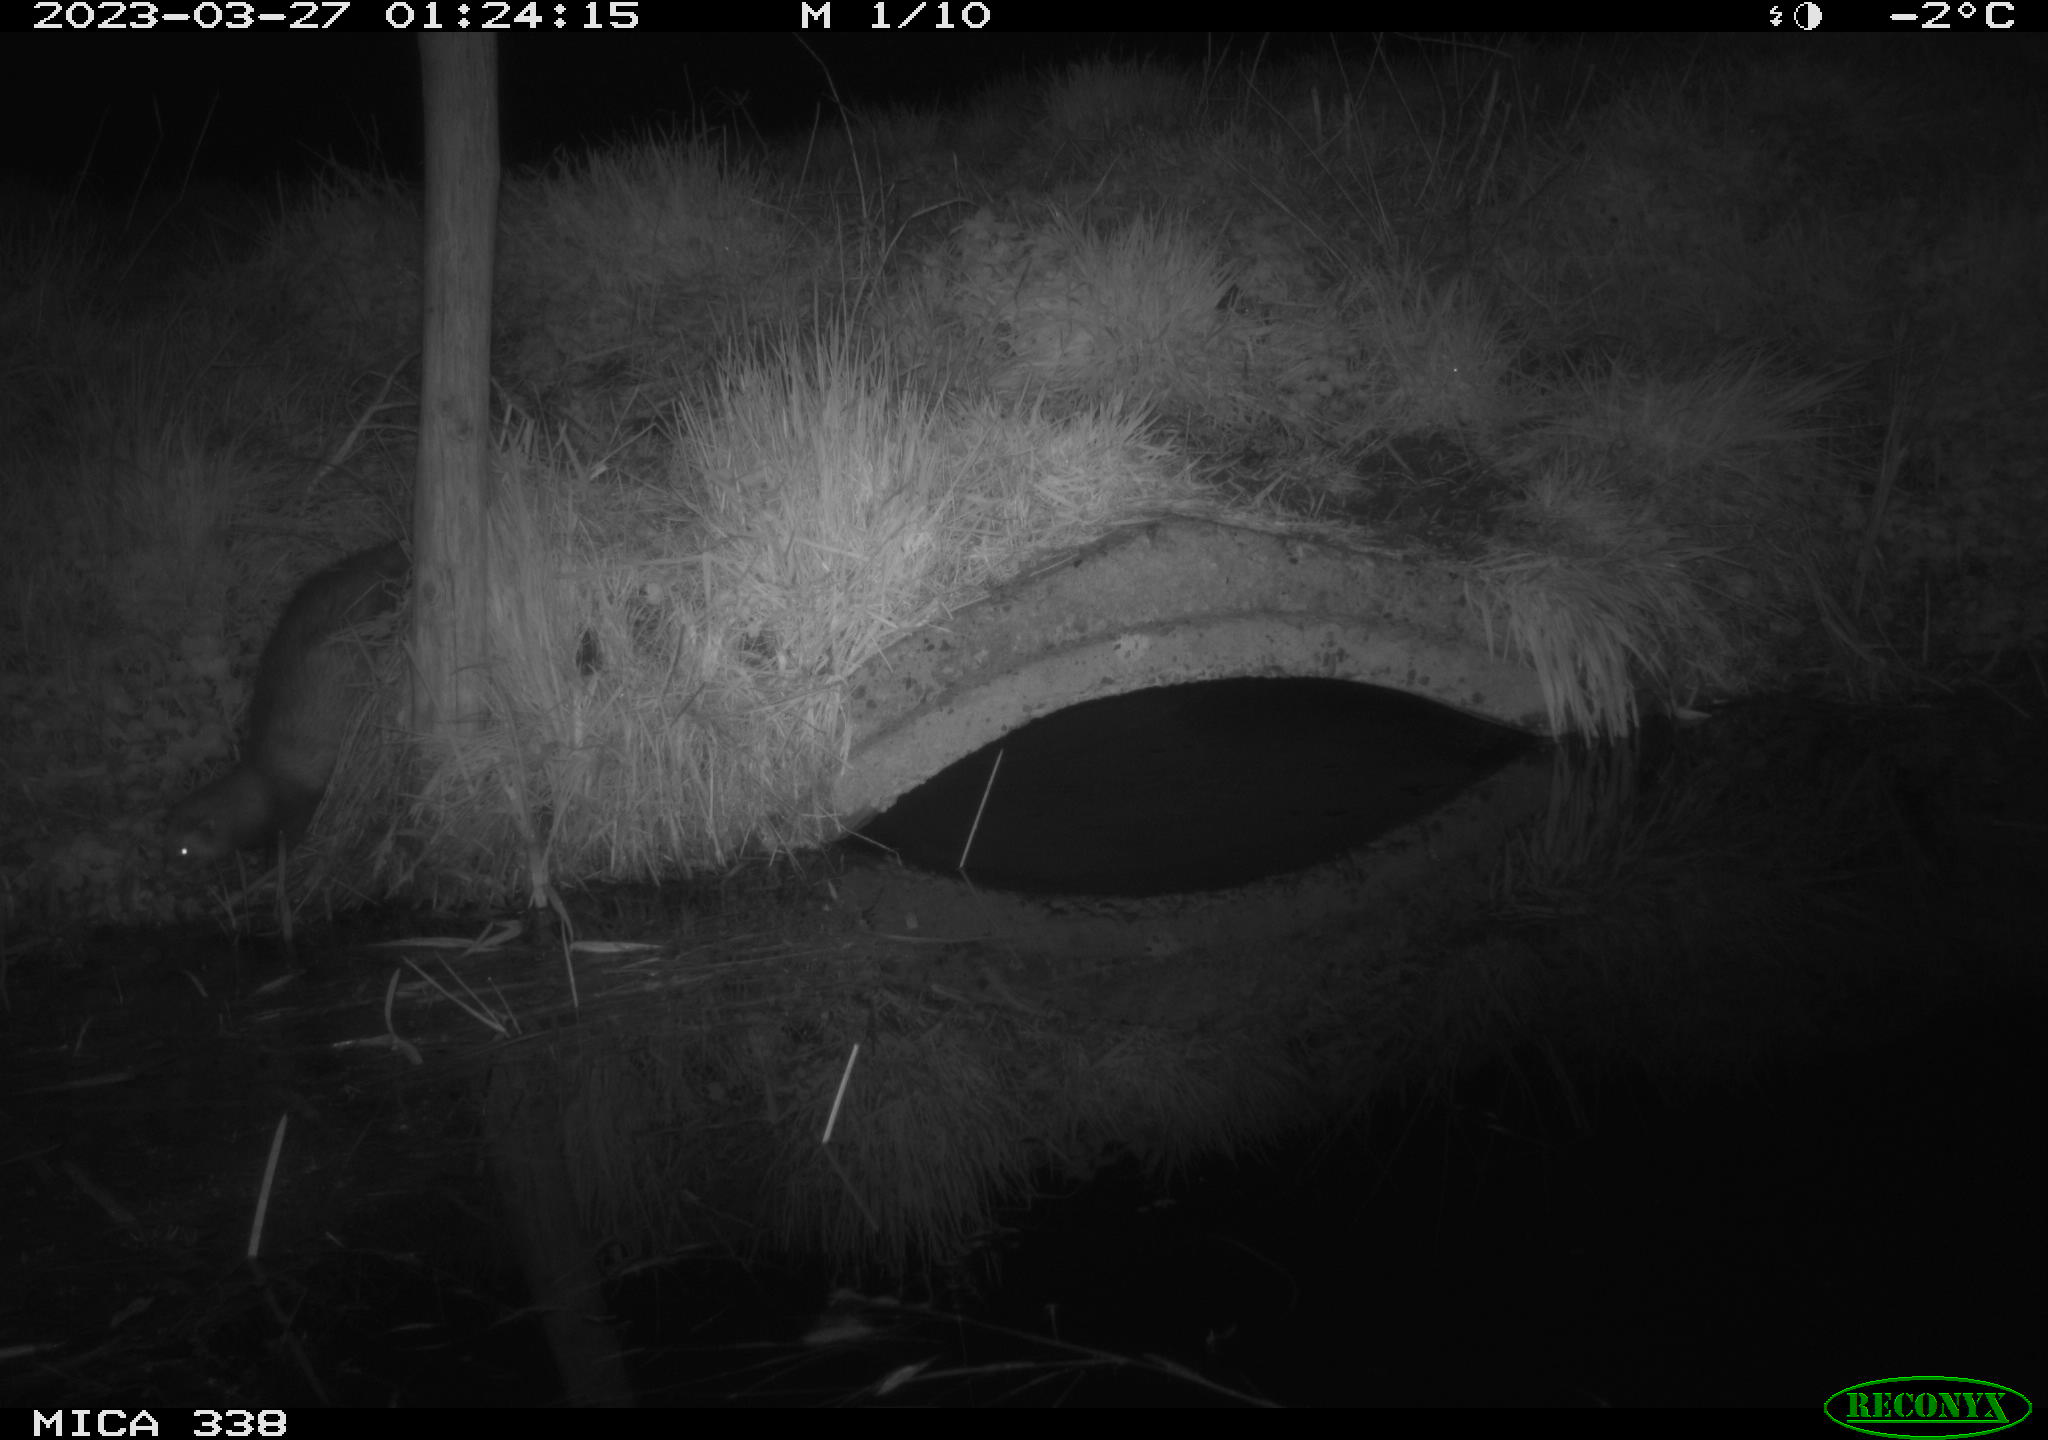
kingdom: Animalia
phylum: Chordata
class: Mammalia
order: Carnivora
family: Mustelidae
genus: Mustela
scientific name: Mustela putorius
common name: European polecat
